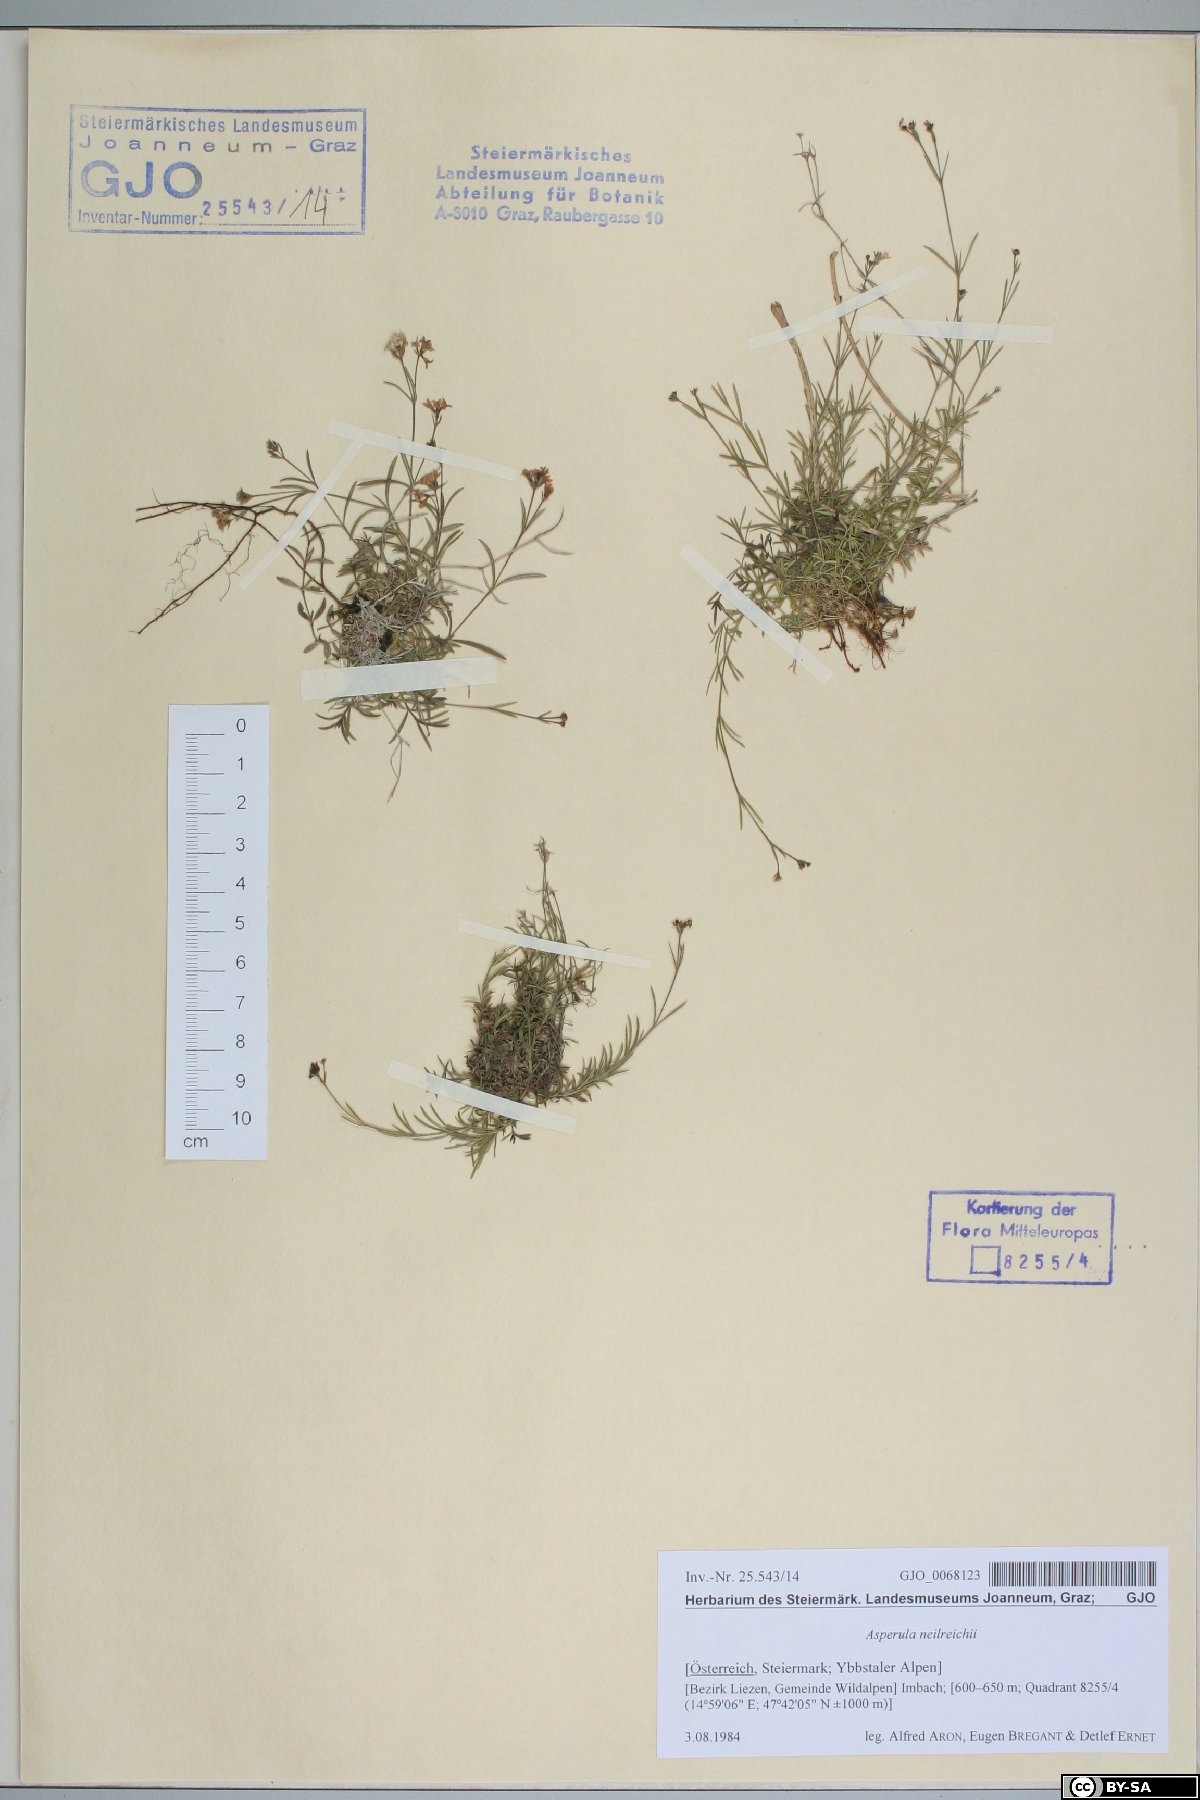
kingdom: Plantae
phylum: Tracheophyta
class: Magnoliopsida
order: Gentianales
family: Rubiaceae
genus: Cynanchica
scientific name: Cynanchica neilreichii
